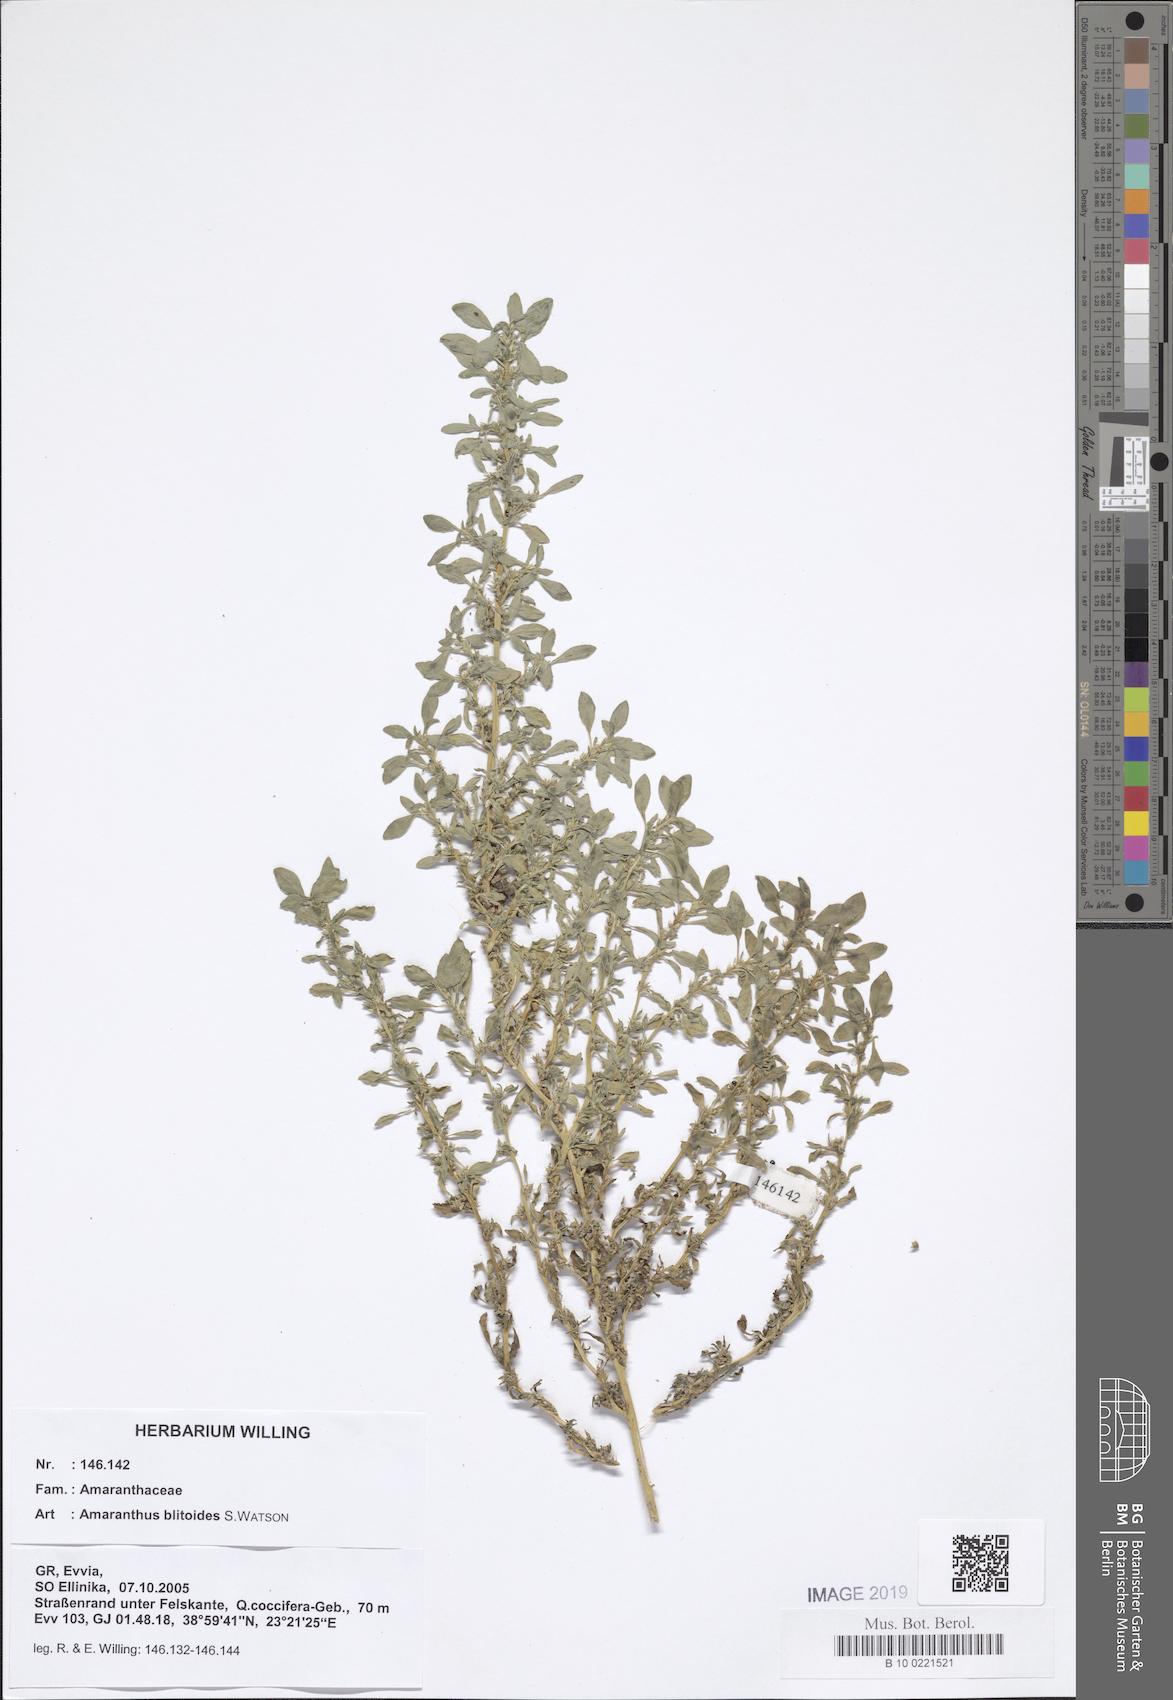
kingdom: Plantae
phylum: Tracheophyta
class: Magnoliopsida
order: Caryophyllales
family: Amaranthaceae
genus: Amaranthus
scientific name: Amaranthus blitoides
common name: Prostrate pigweed
